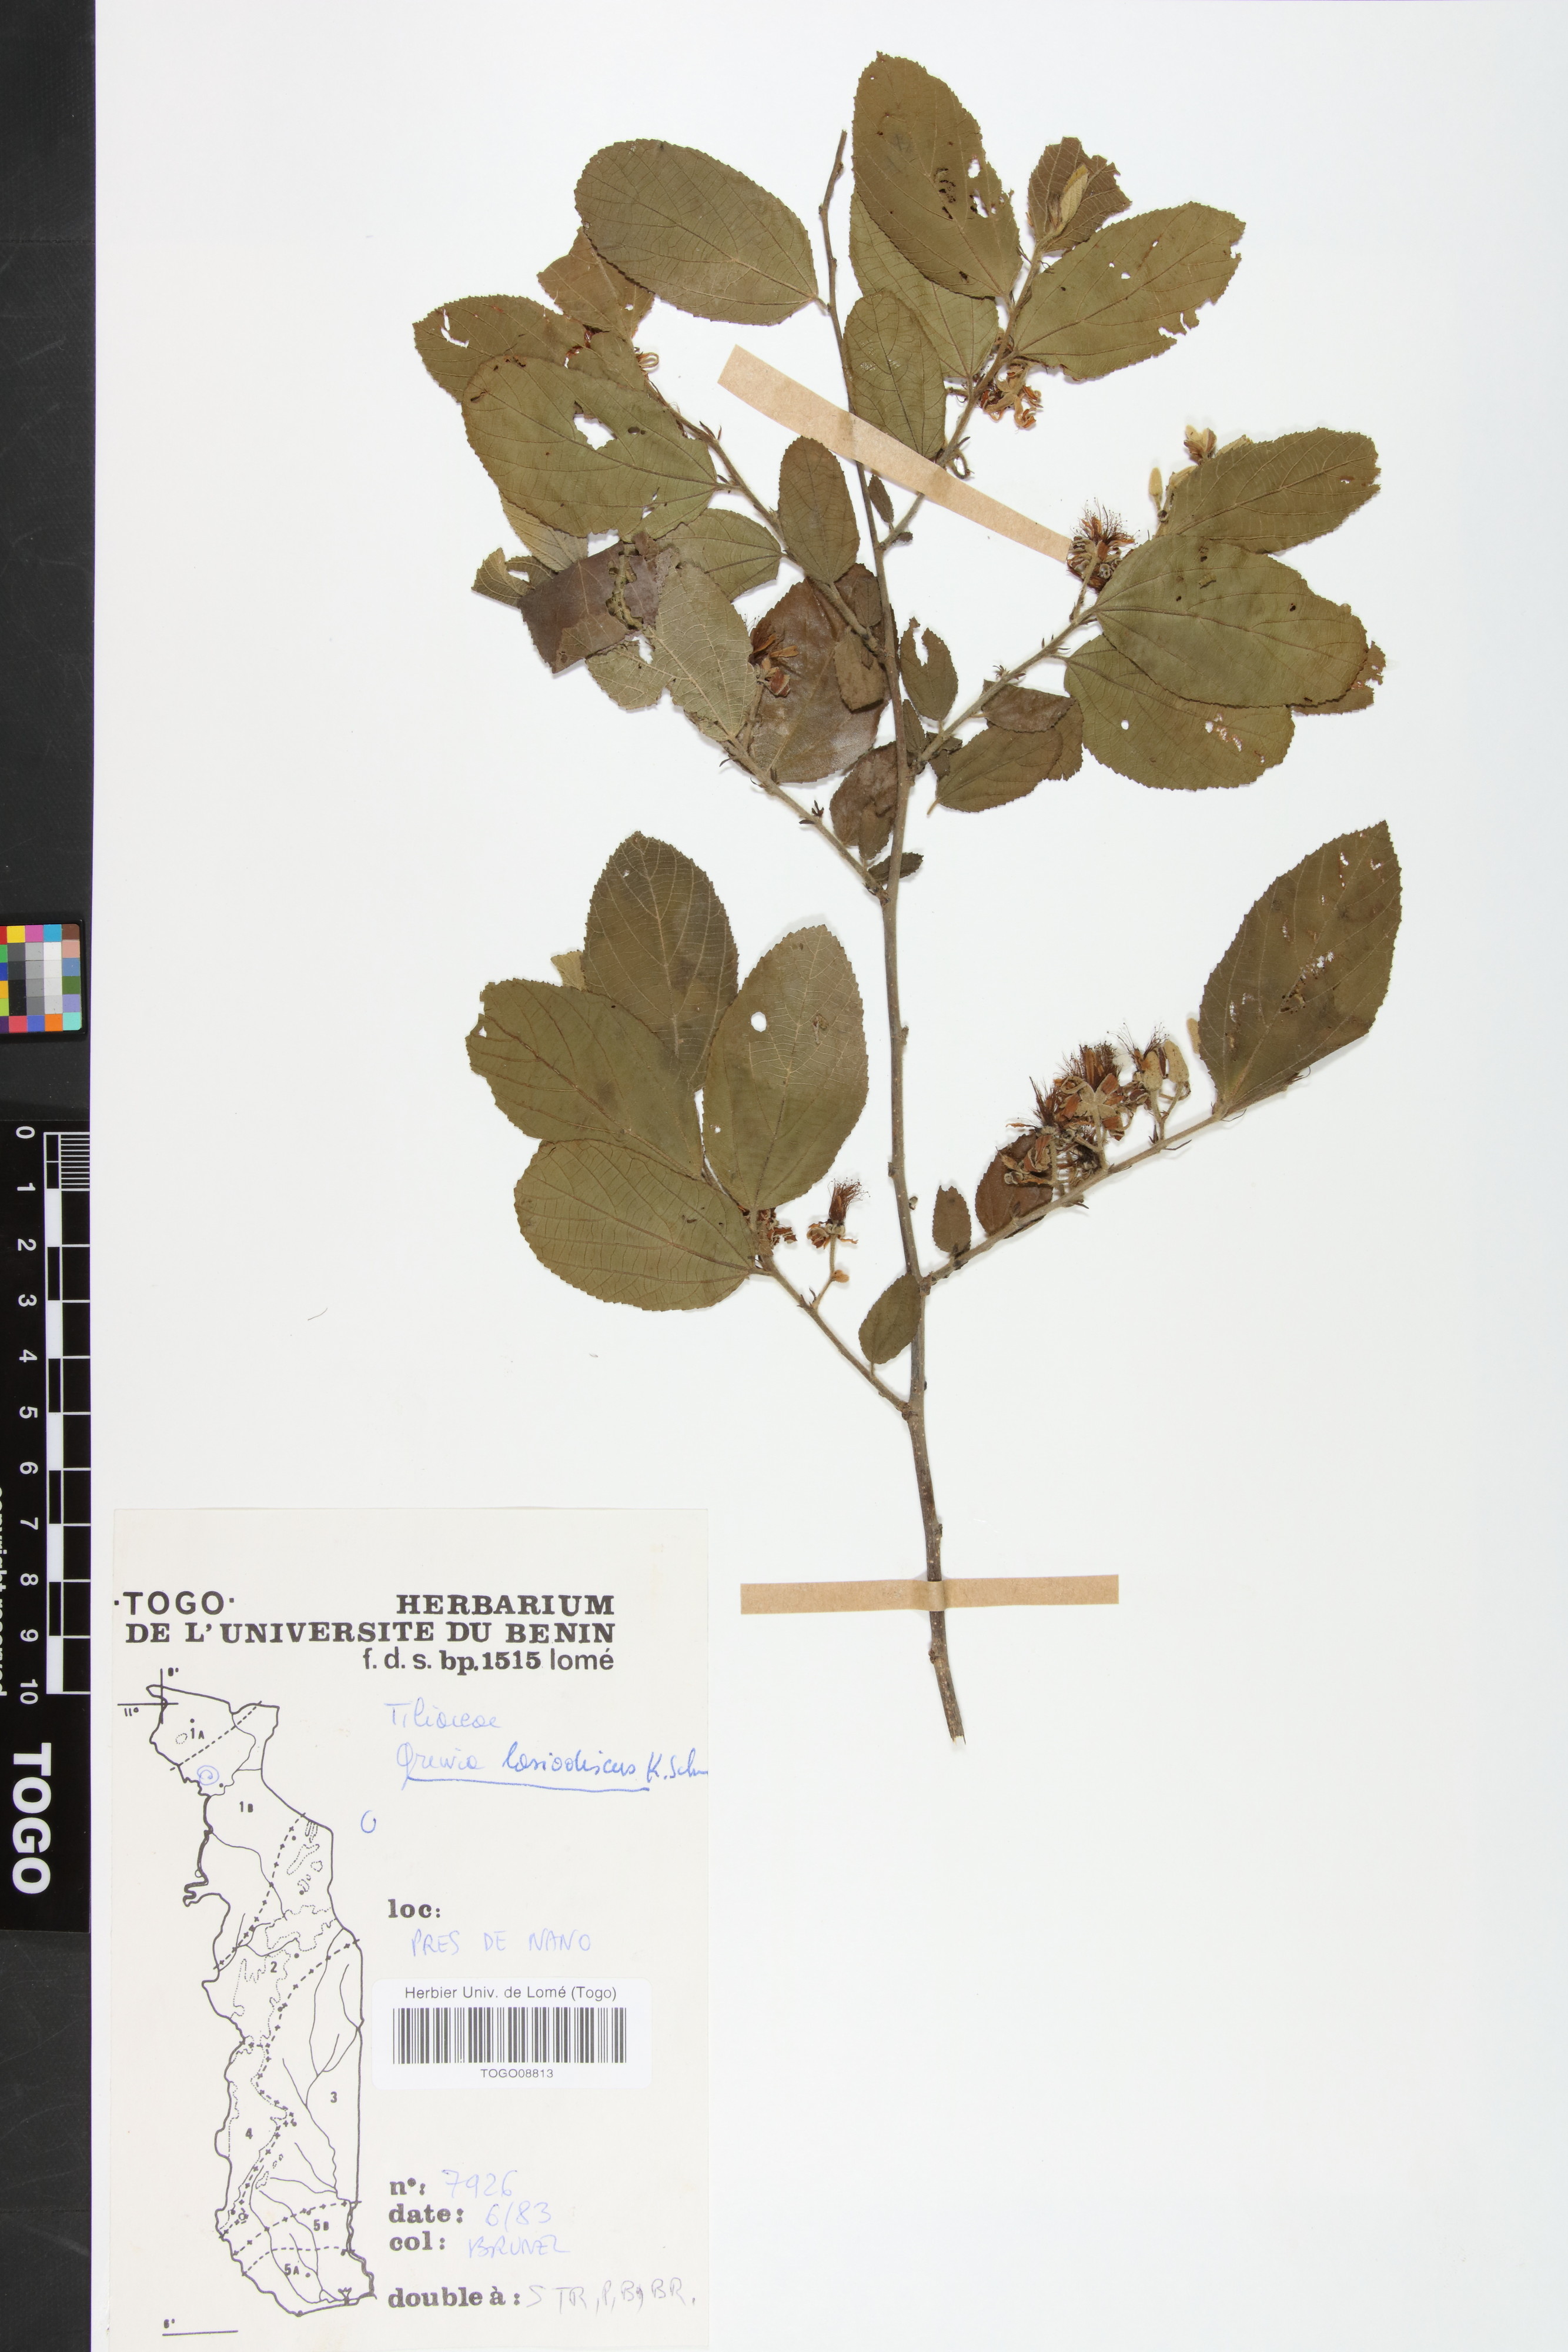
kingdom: Plantae
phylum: Tracheophyta
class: Magnoliopsida
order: Malvales
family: Malvaceae
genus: Grewia
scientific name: Grewia lasiodiscus
